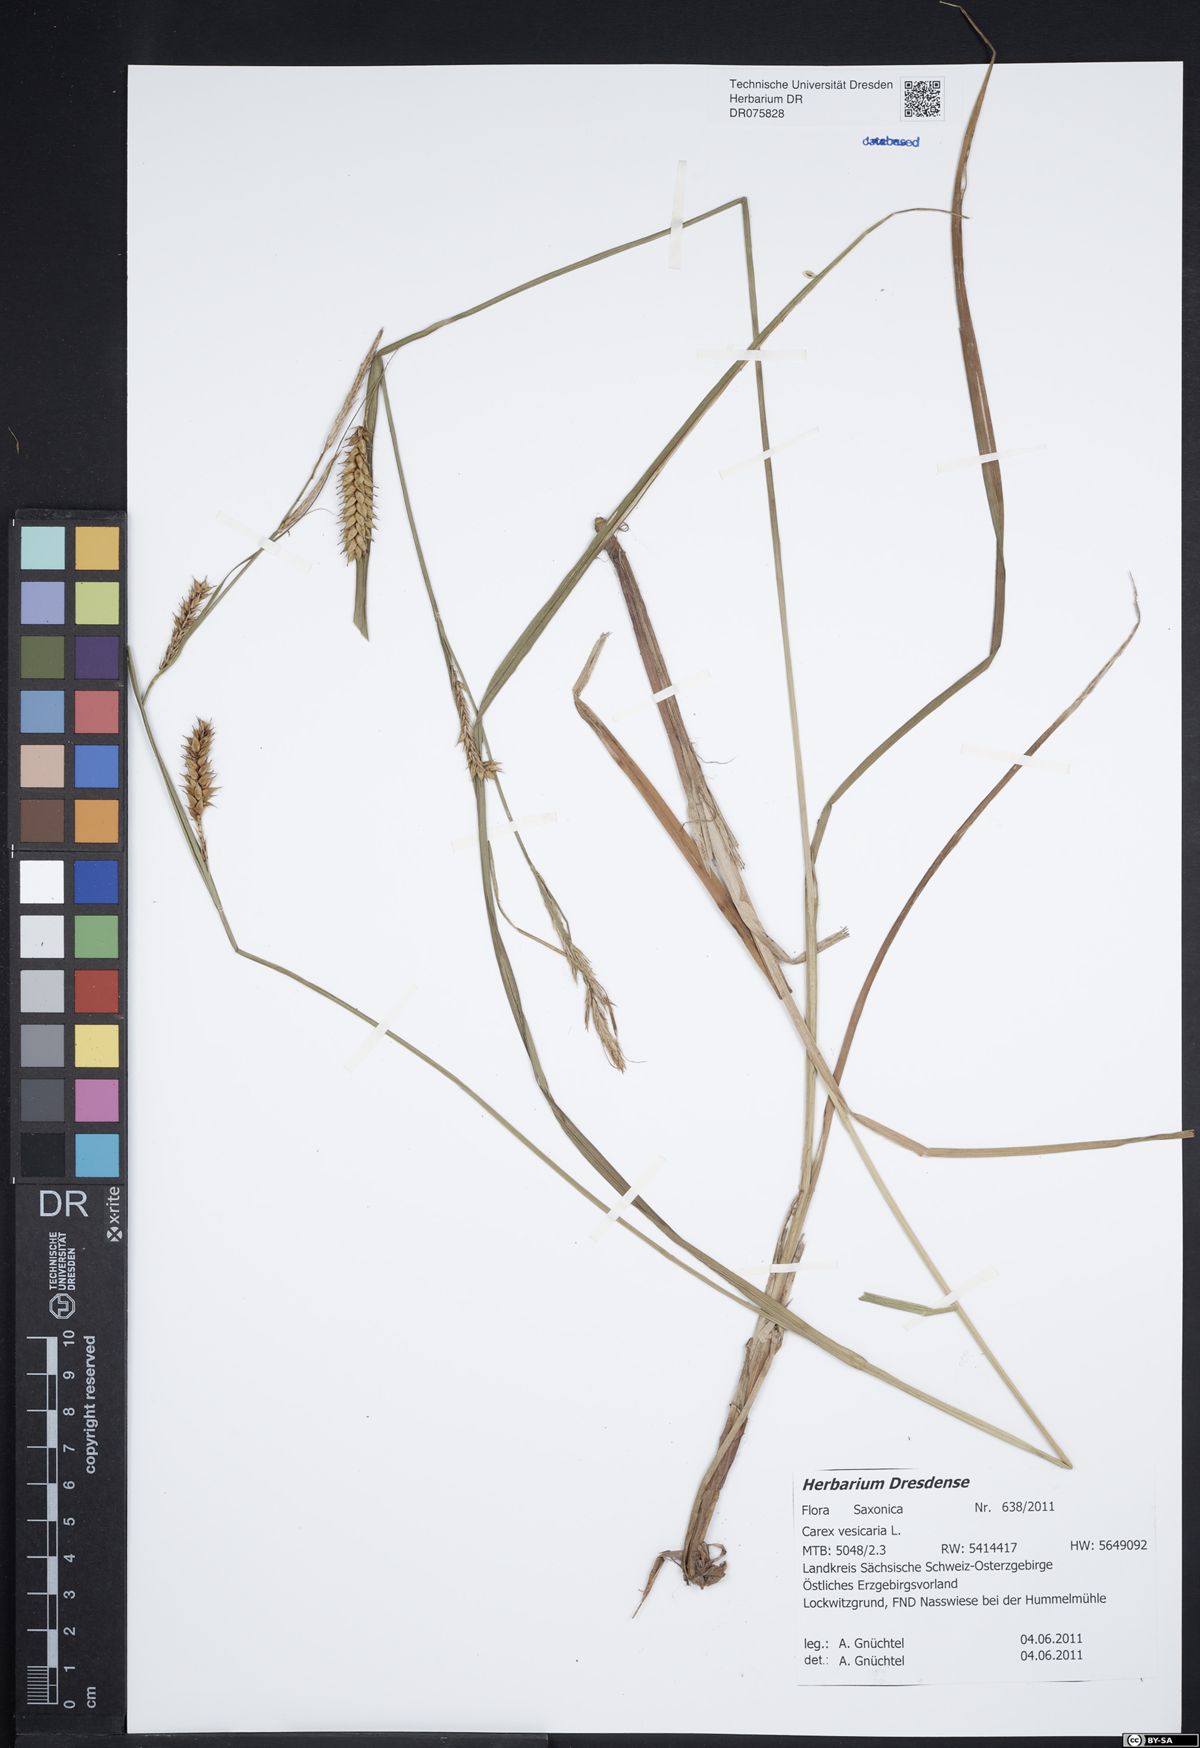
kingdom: Plantae
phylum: Tracheophyta
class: Liliopsida
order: Poales
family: Cyperaceae
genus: Carex
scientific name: Carex vesicaria
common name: Bladder-sedge
